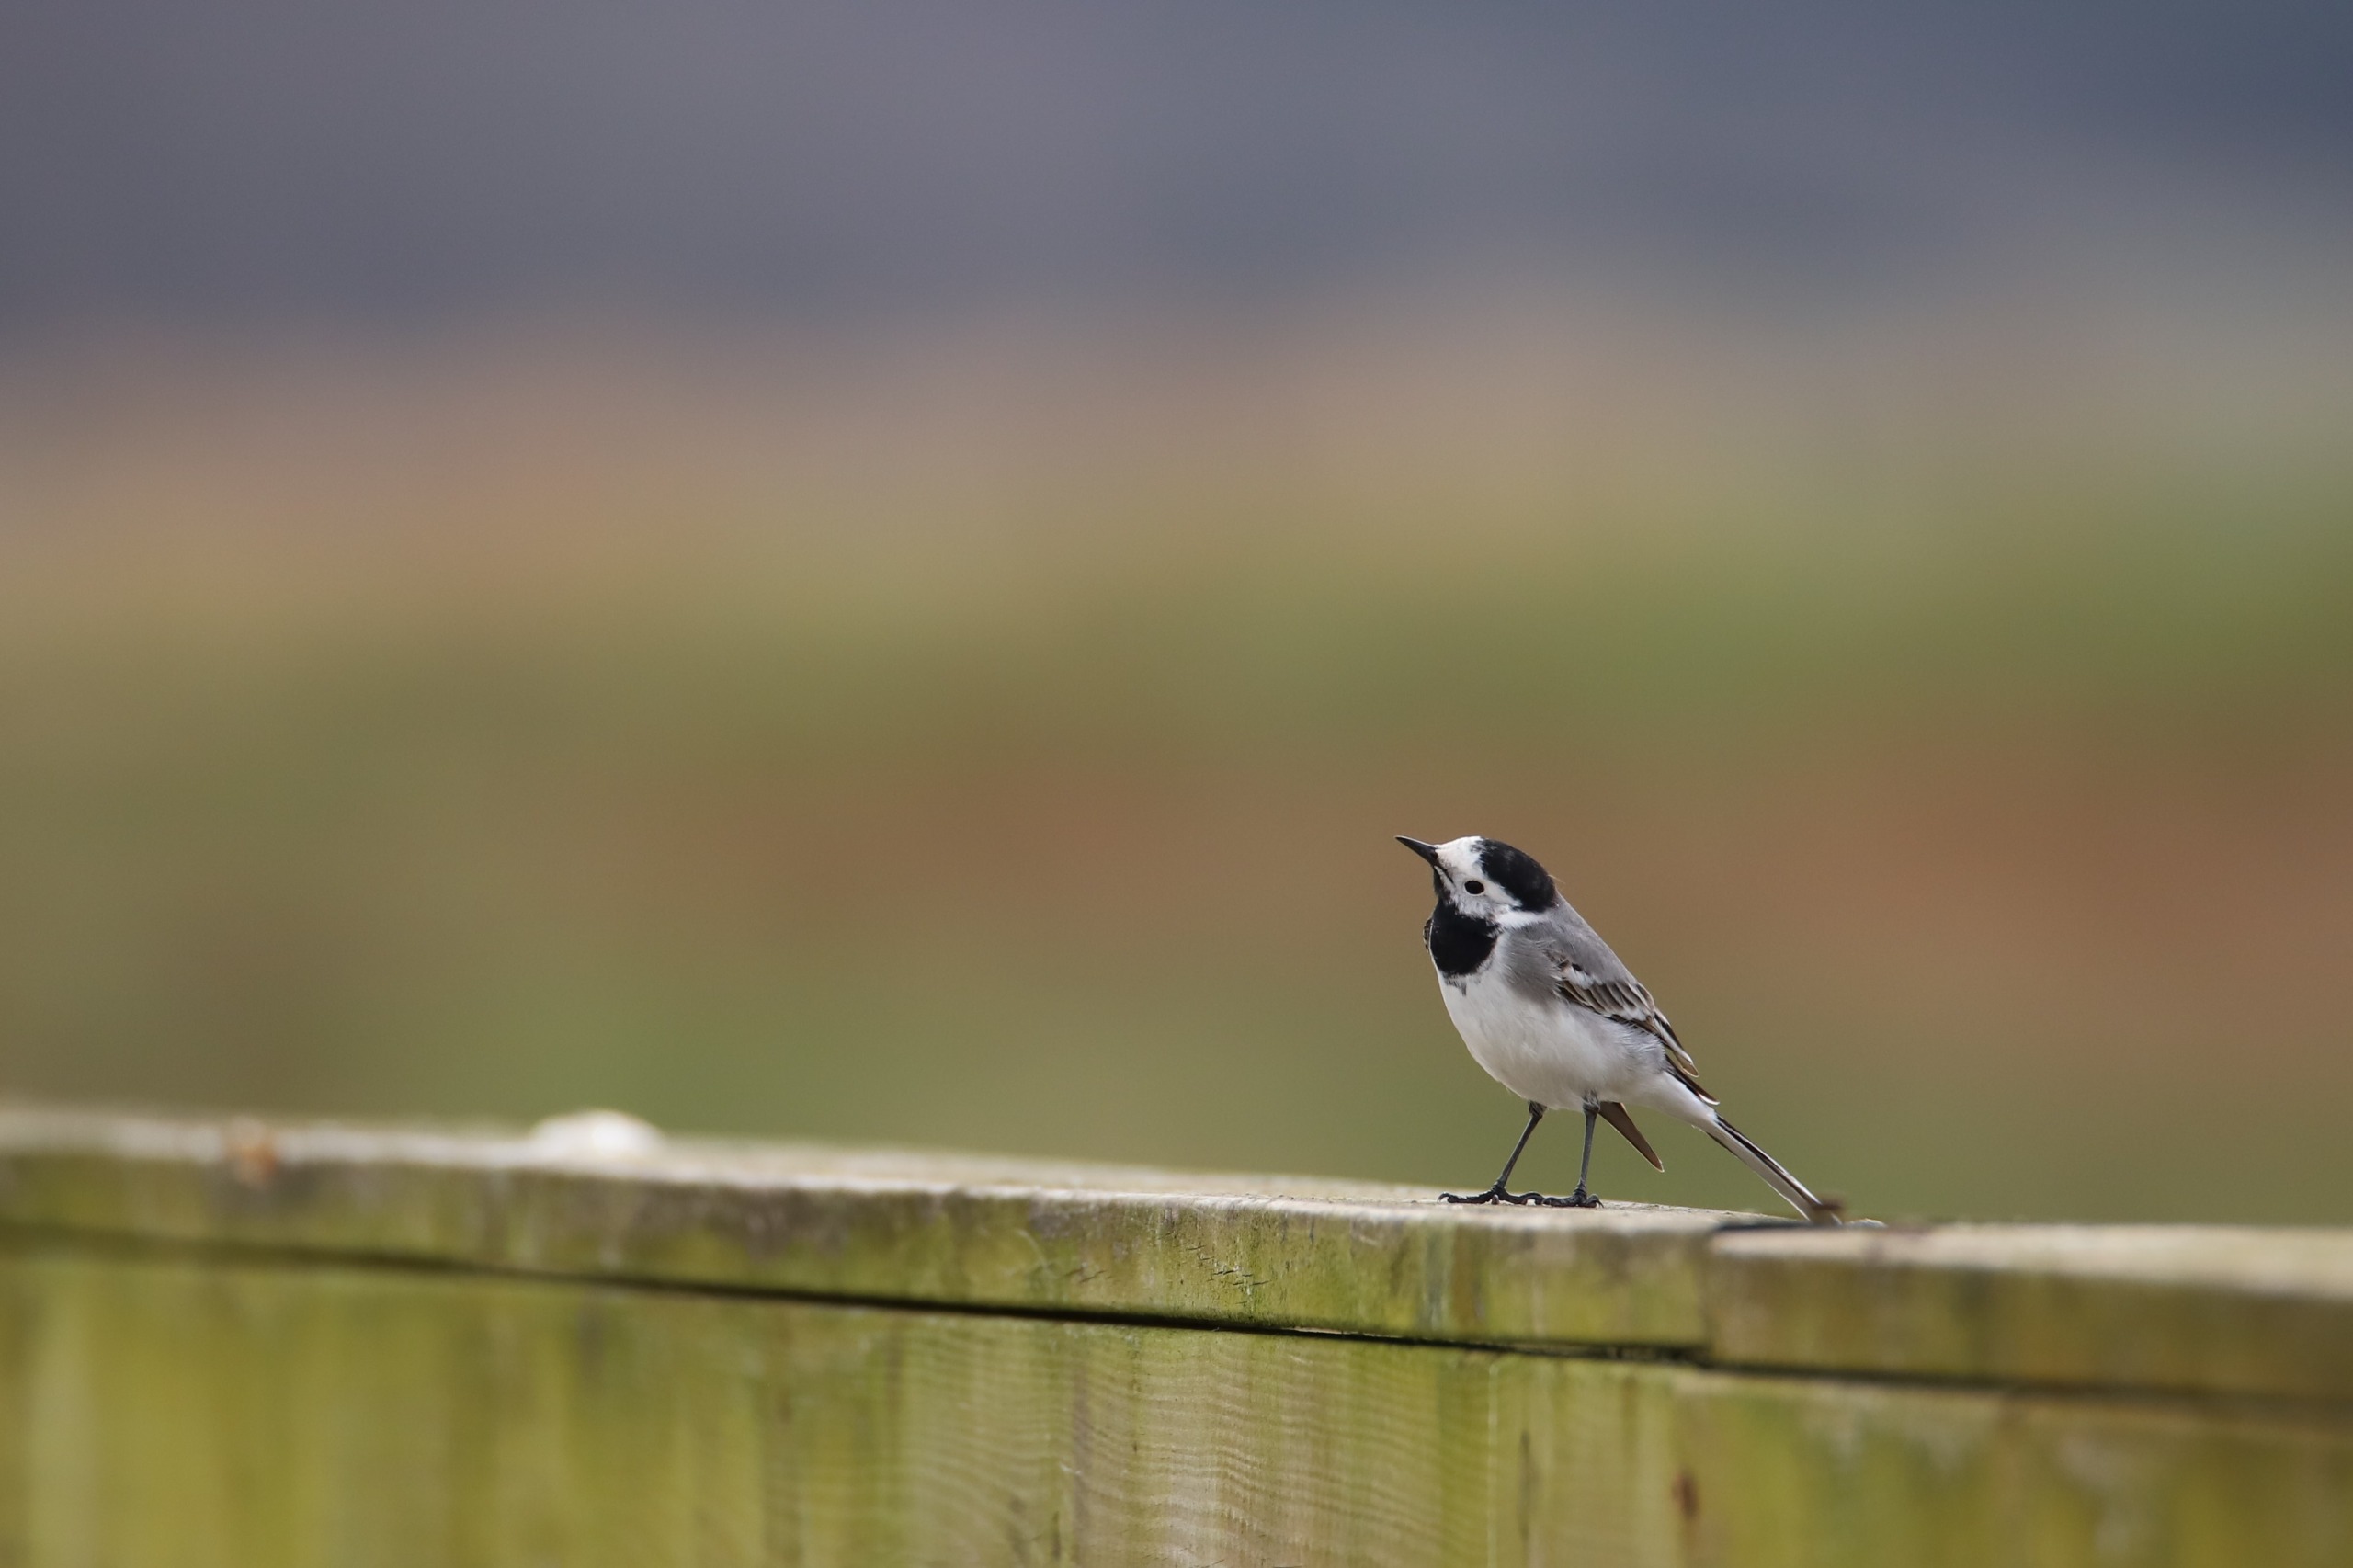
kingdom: Animalia
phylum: Chordata
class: Aves
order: Passeriformes
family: Motacillidae
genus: Motacilla
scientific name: Motacilla alba
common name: Hvid vipstjert
